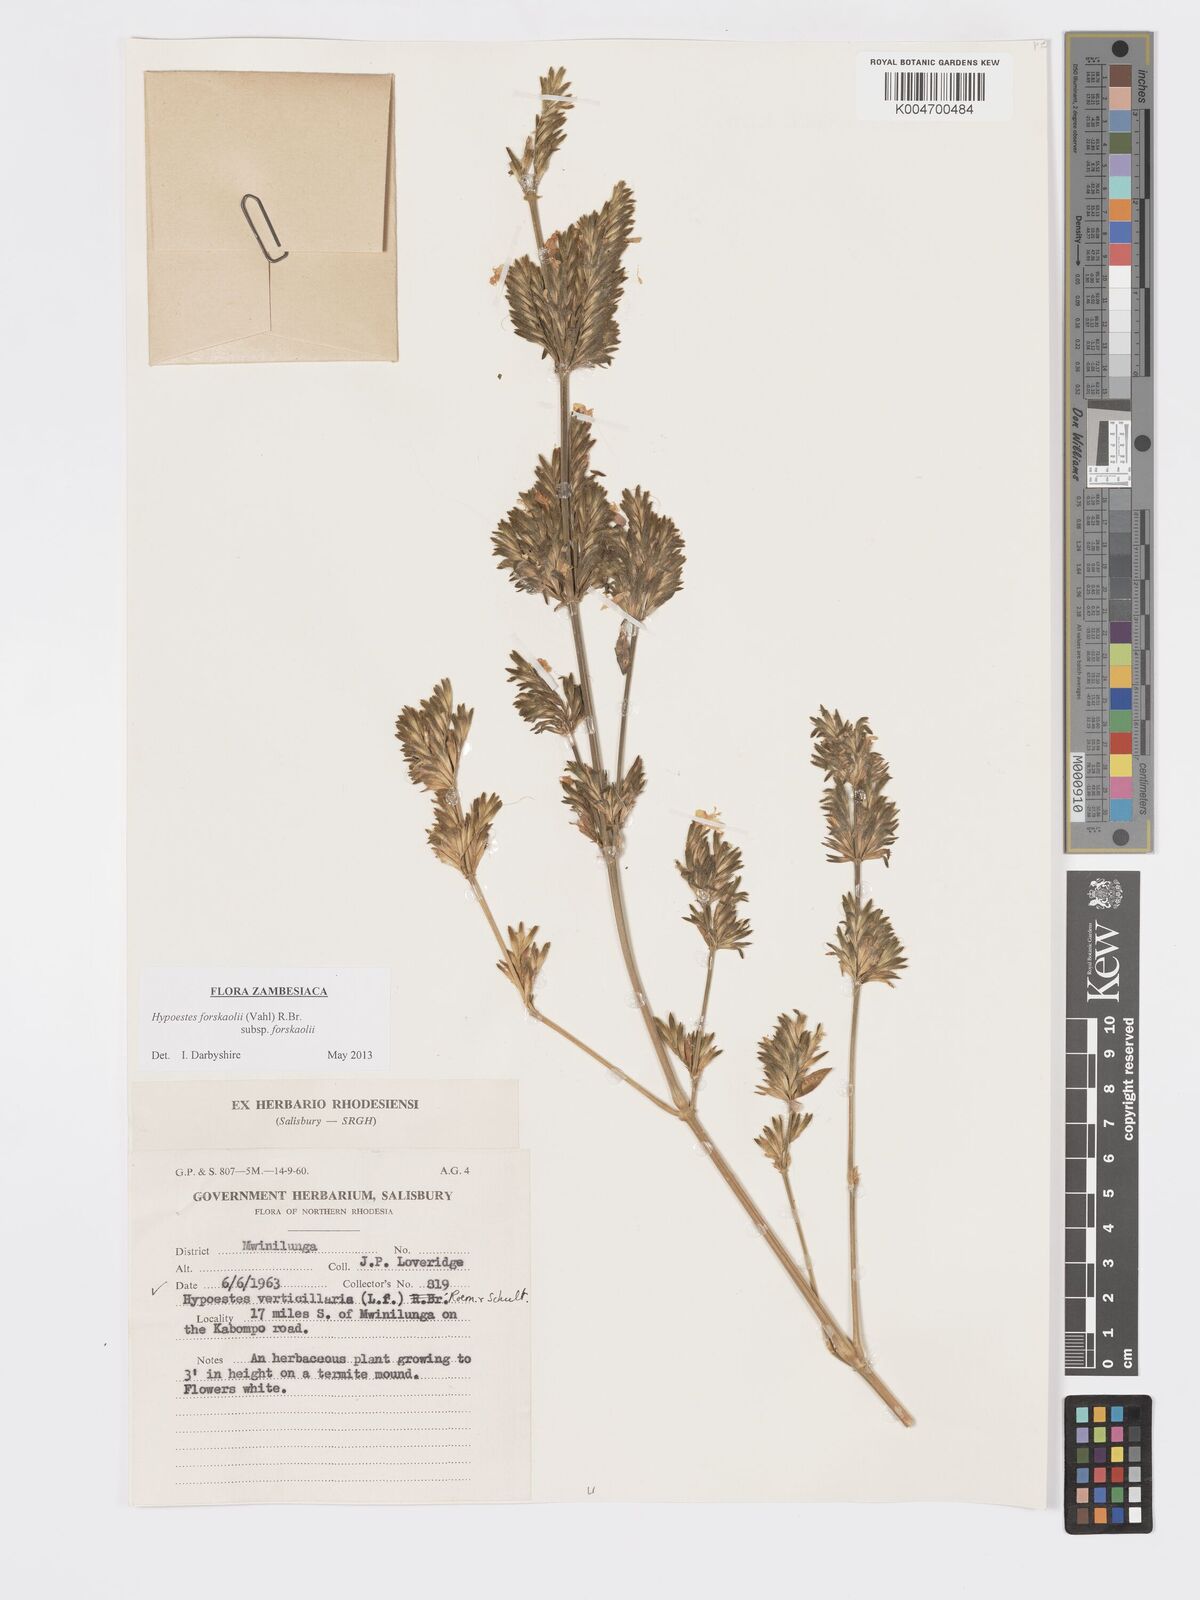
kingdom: Plantae
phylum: Tracheophyta
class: Magnoliopsida
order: Lamiales
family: Acanthaceae
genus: Hypoestes
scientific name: Hypoestes forskaolii
